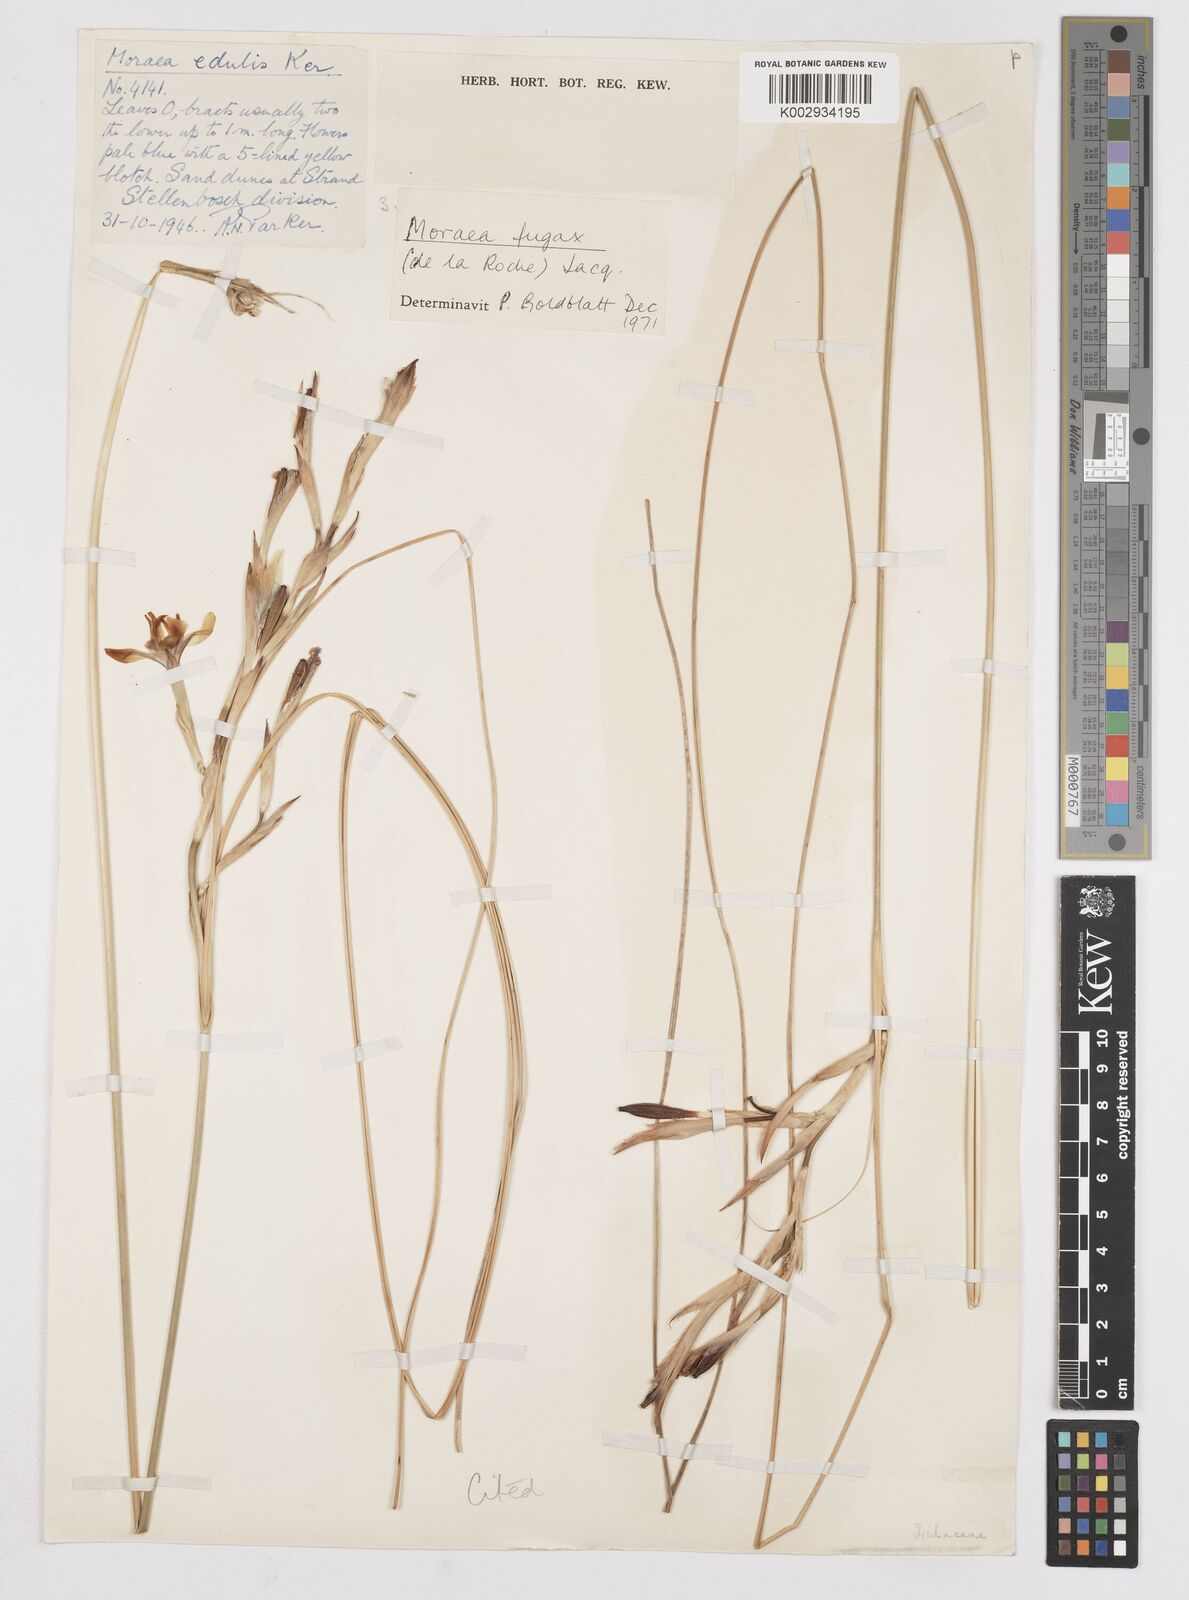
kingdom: Plantae
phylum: Tracheophyta
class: Liliopsida
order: Asparagales
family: Iridaceae
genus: Moraea
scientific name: Moraea fugax
